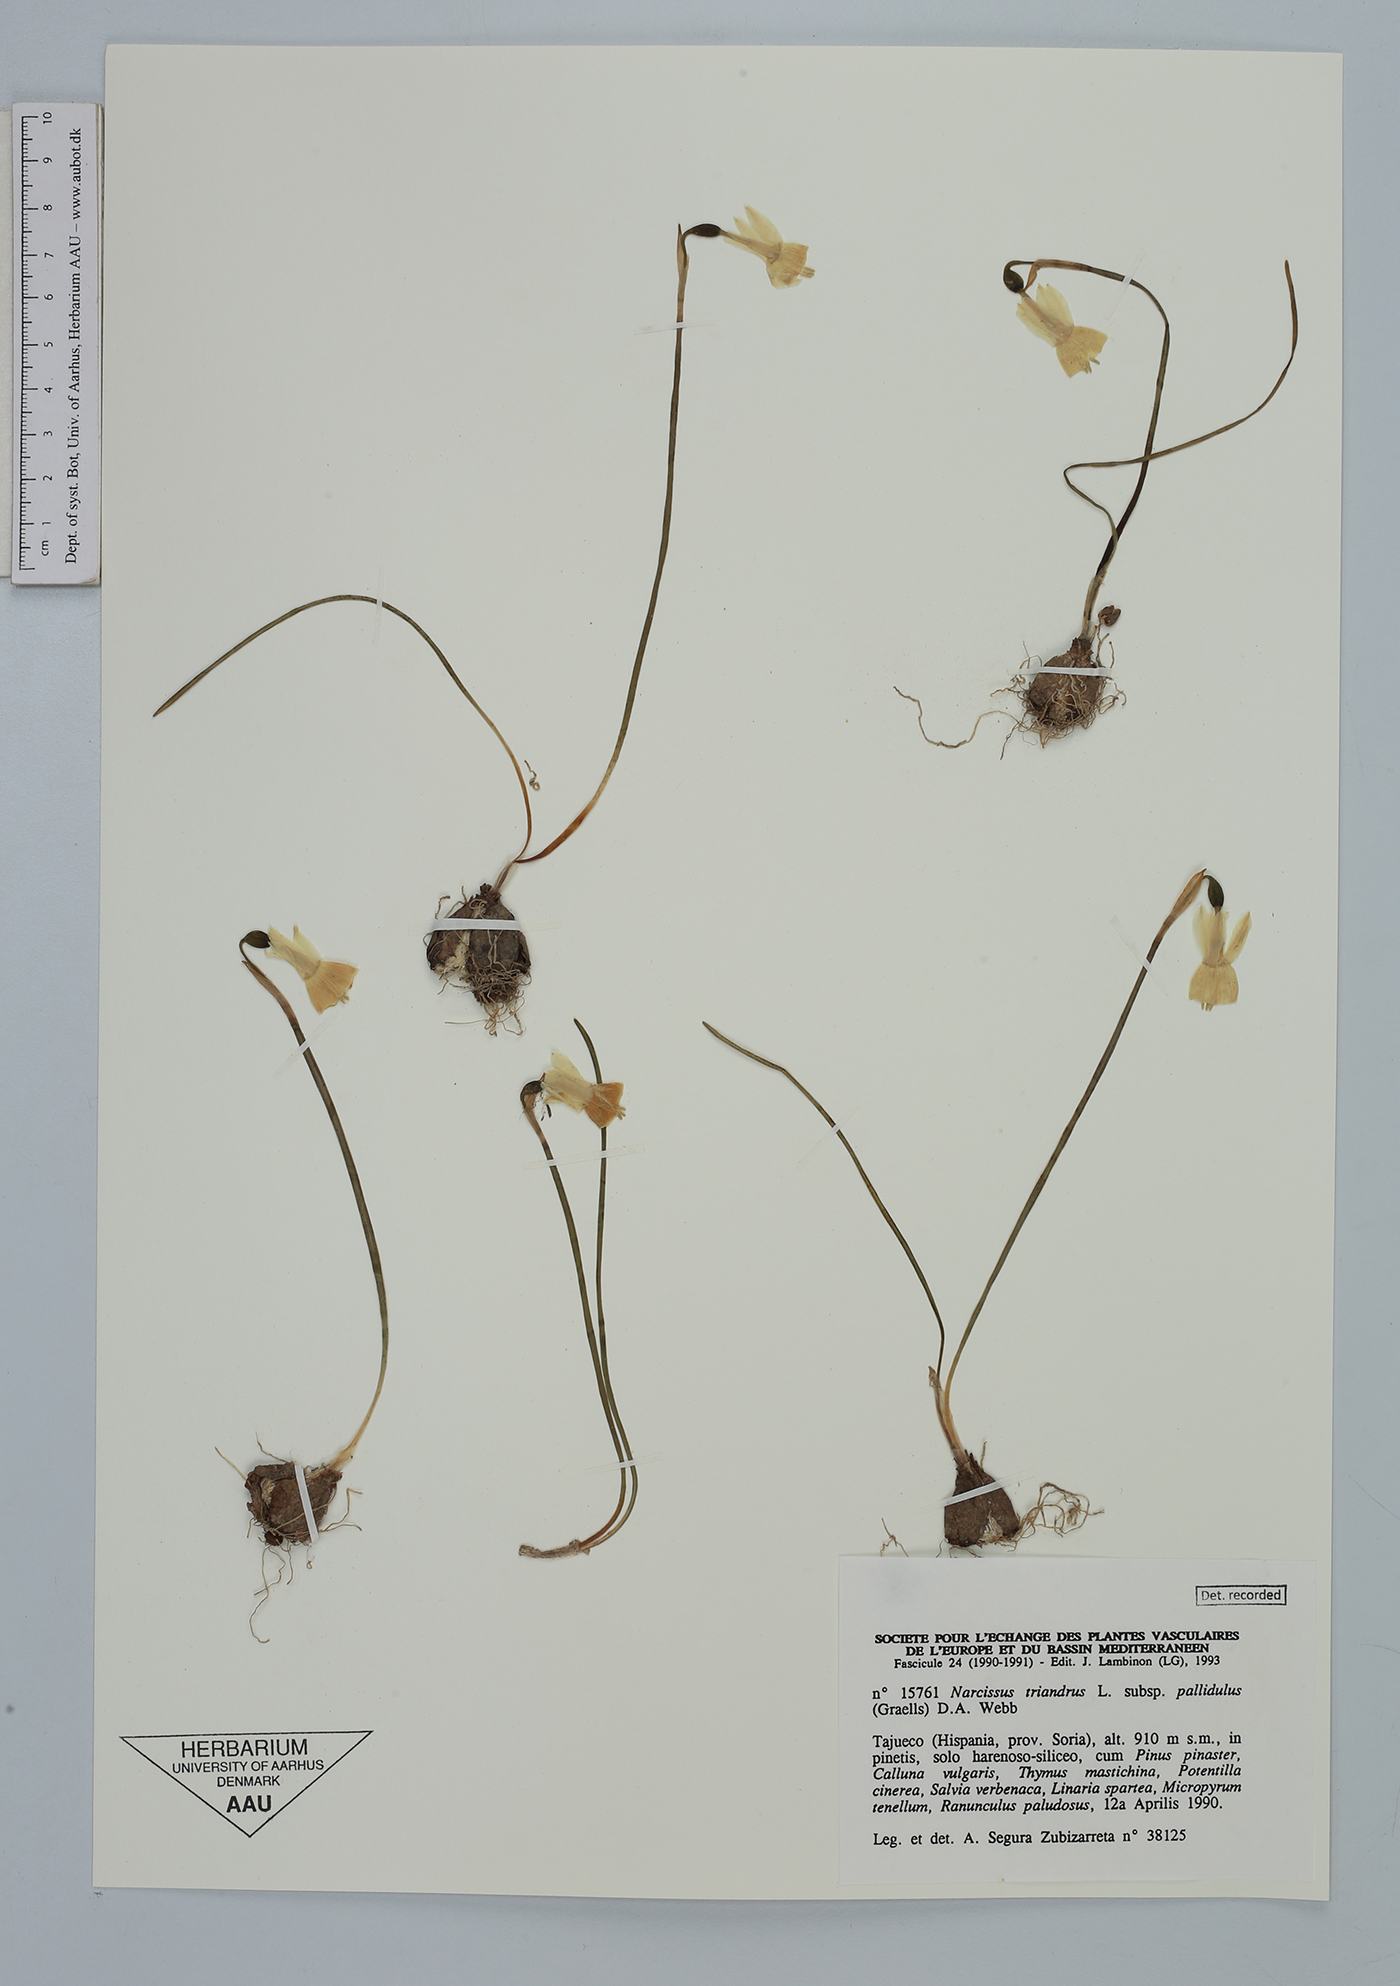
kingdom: Plantae
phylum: Tracheophyta
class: Liliopsida
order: Asparagales
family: Amaryllidaceae
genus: Narcissus
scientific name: Narcissus triandrus
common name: Angel's-tears
